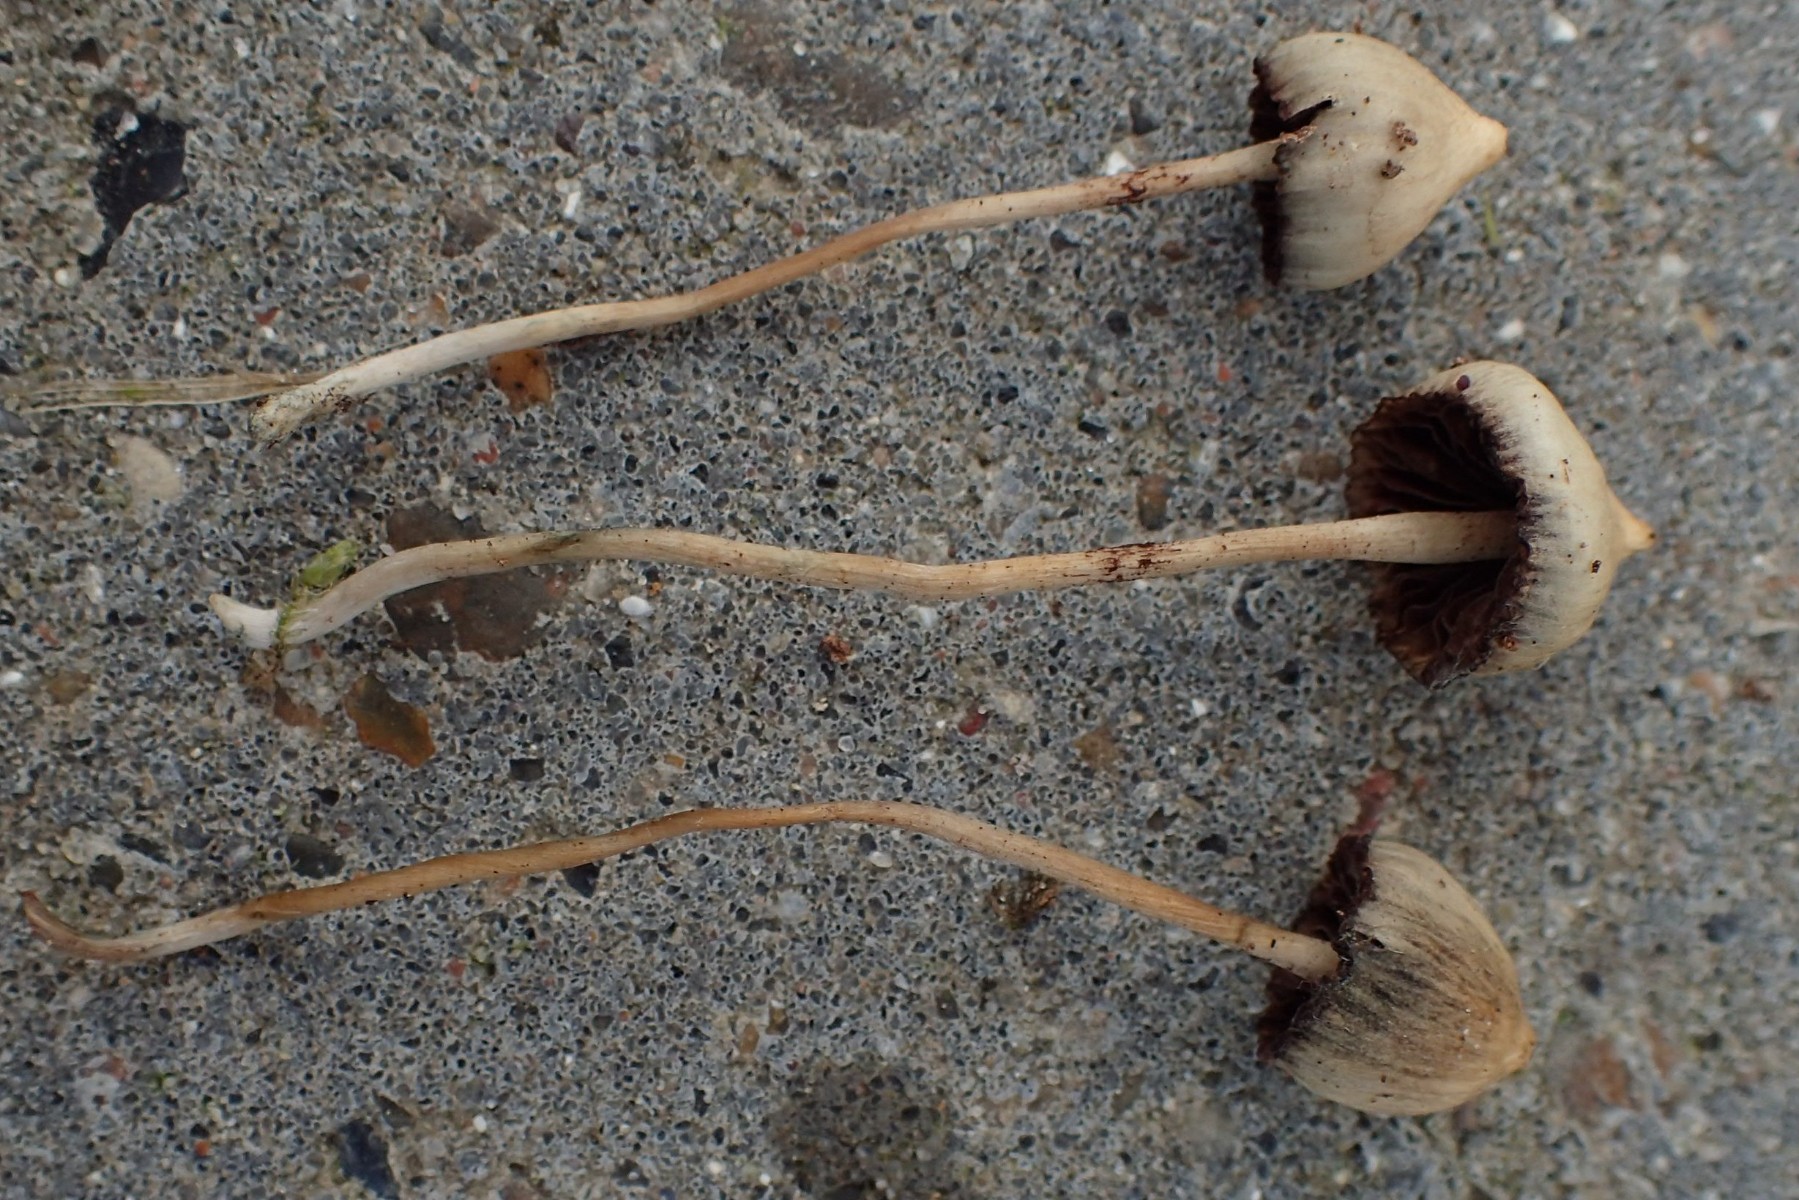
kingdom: Fungi
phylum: Basidiomycota
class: Agaricomycetes
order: Agaricales
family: Hymenogastraceae
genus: Psilocybe
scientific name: Psilocybe semilanceata
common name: spids nøgenhat
